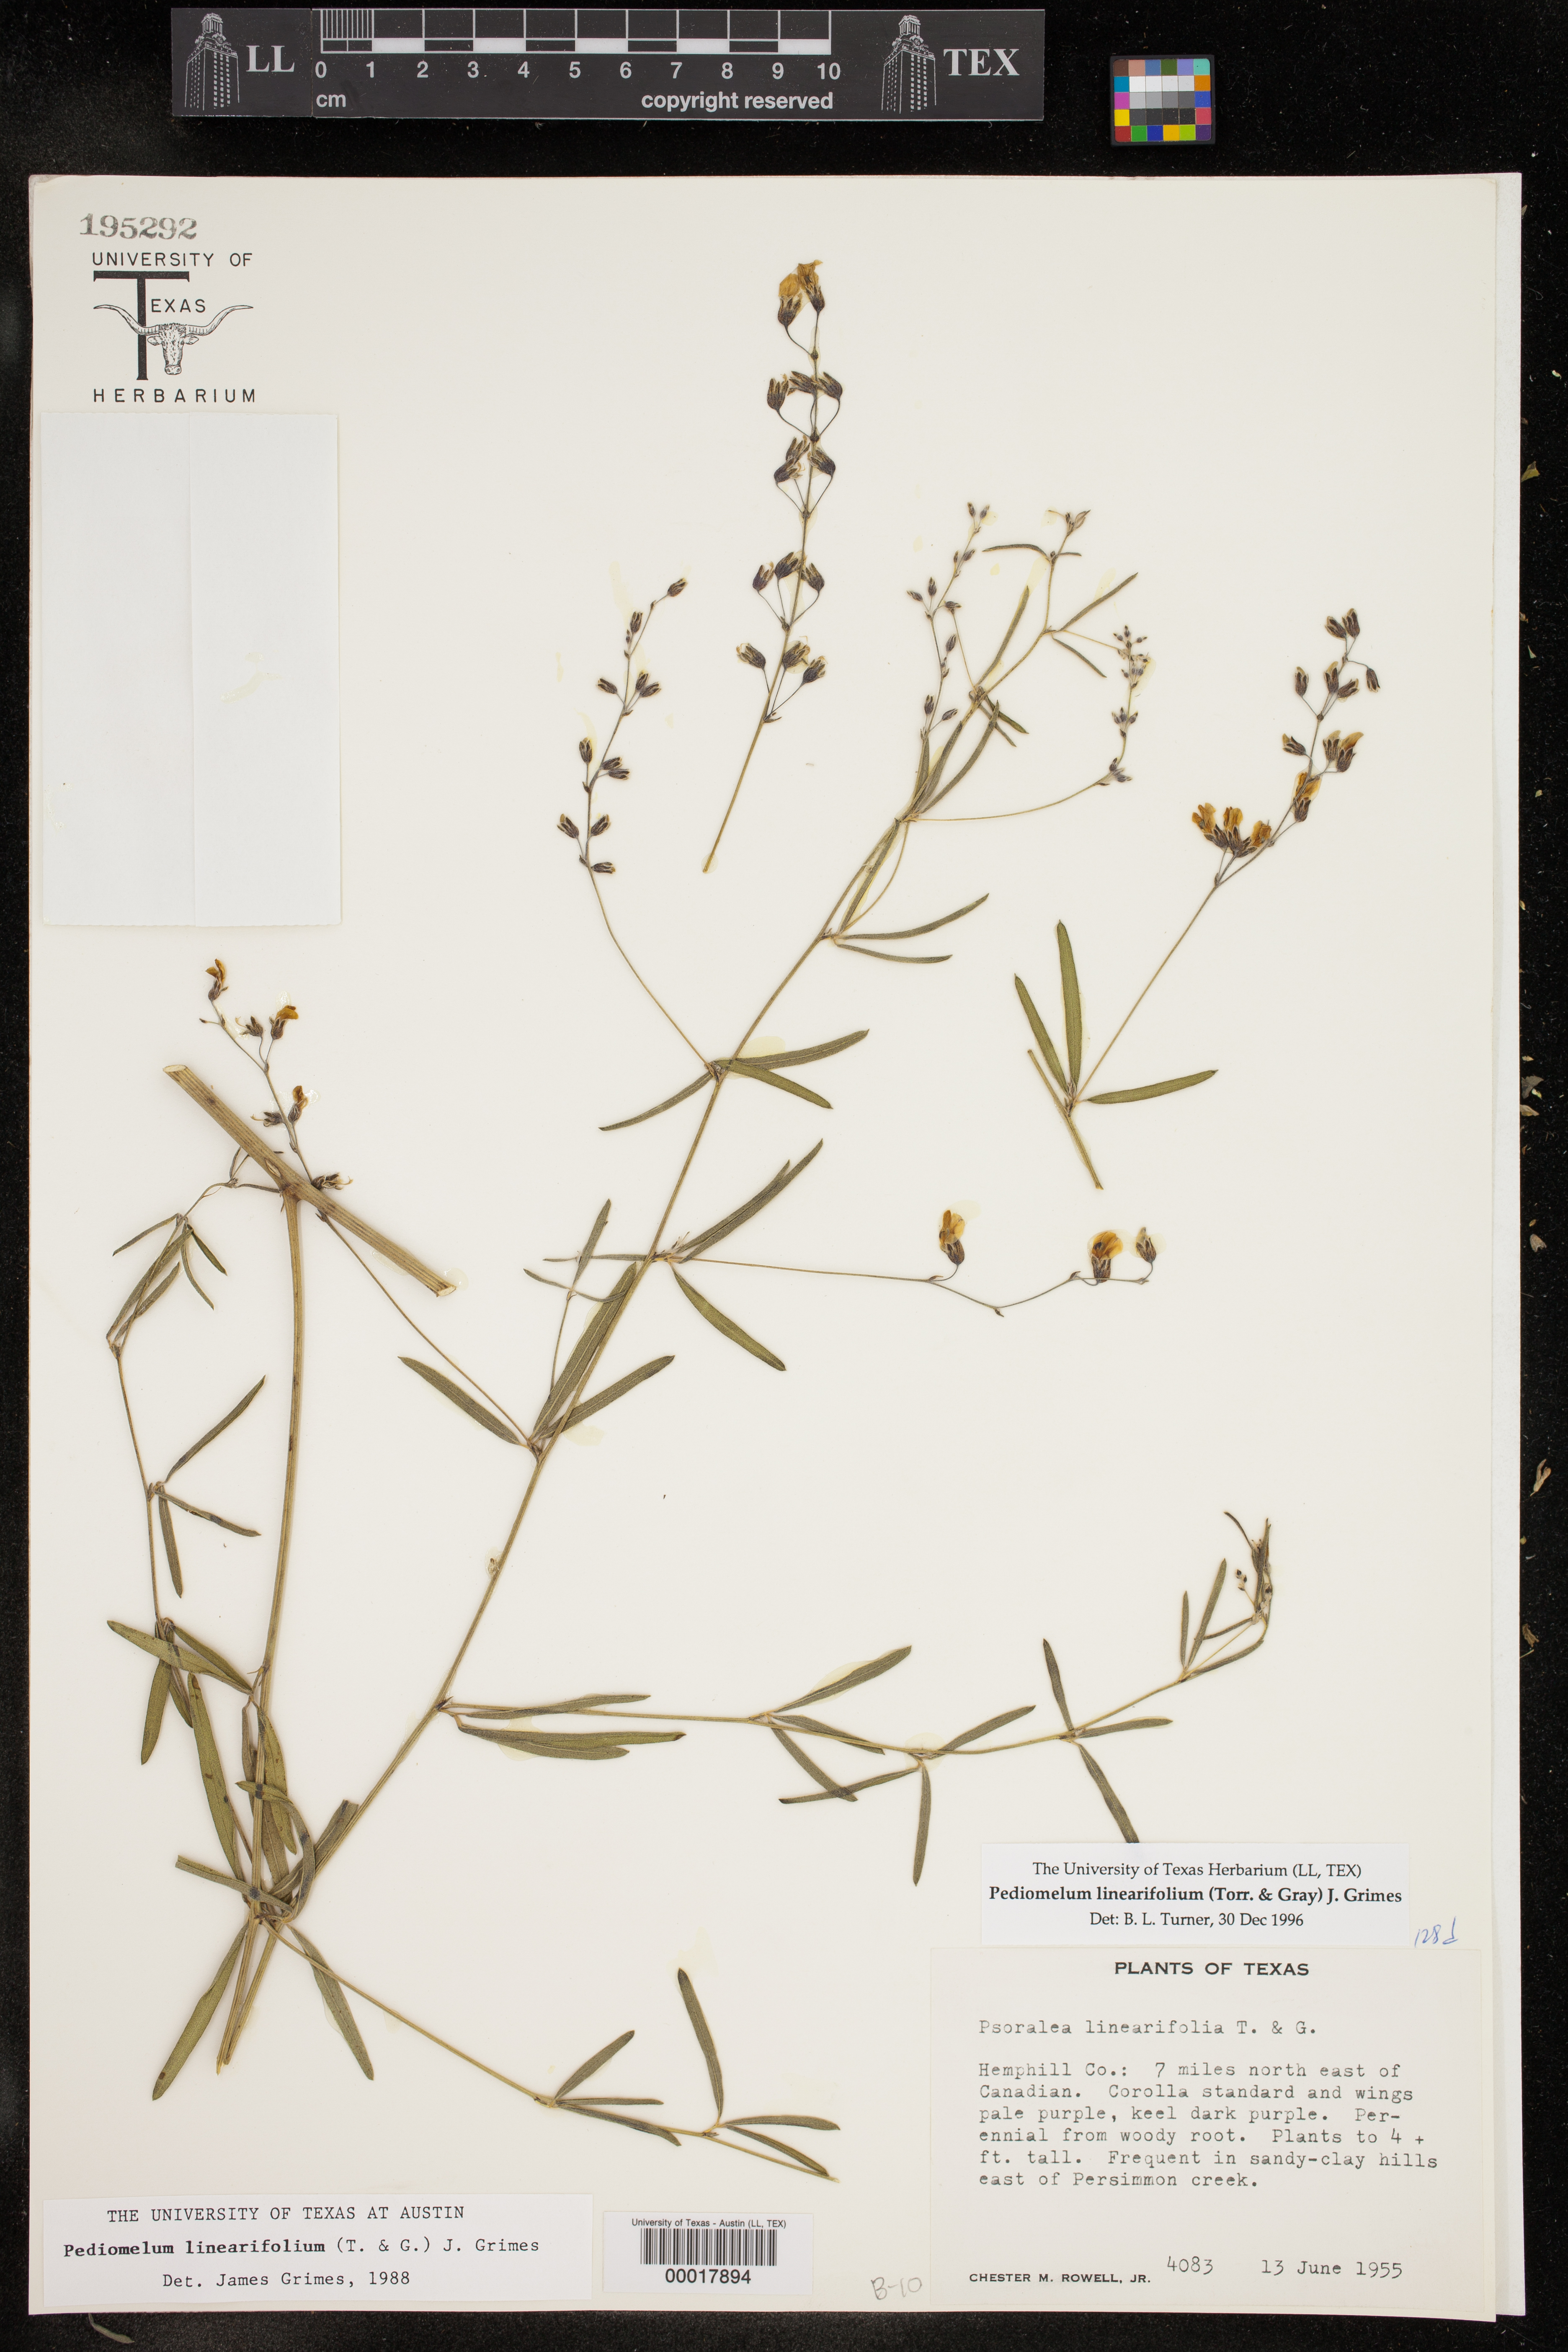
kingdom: Plantae
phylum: Tracheophyta
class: Magnoliopsida
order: Fabales
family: Fabaceae
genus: Pediomelum
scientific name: Pediomelum linearifolium
